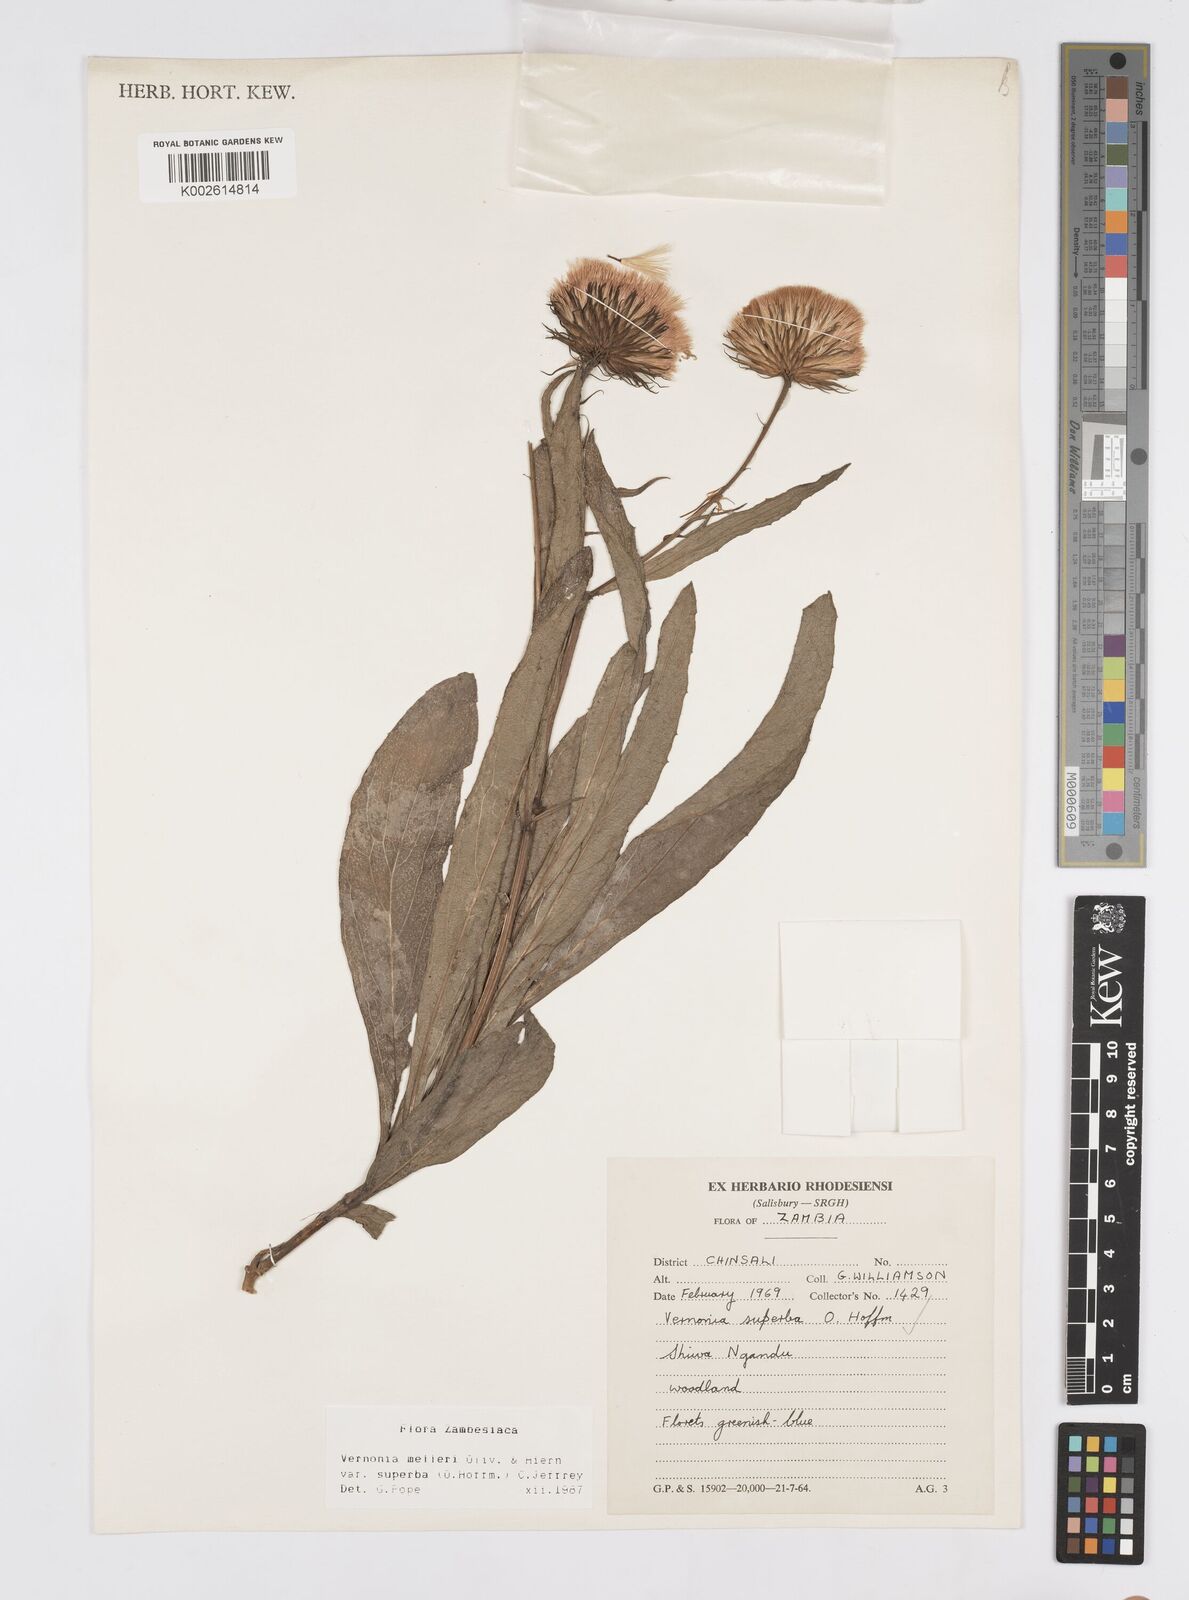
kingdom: Plantae
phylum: Tracheophyta
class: Magnoliopsida
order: Asterales
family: Asteraceae
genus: Linzia
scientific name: Linzia melleri
